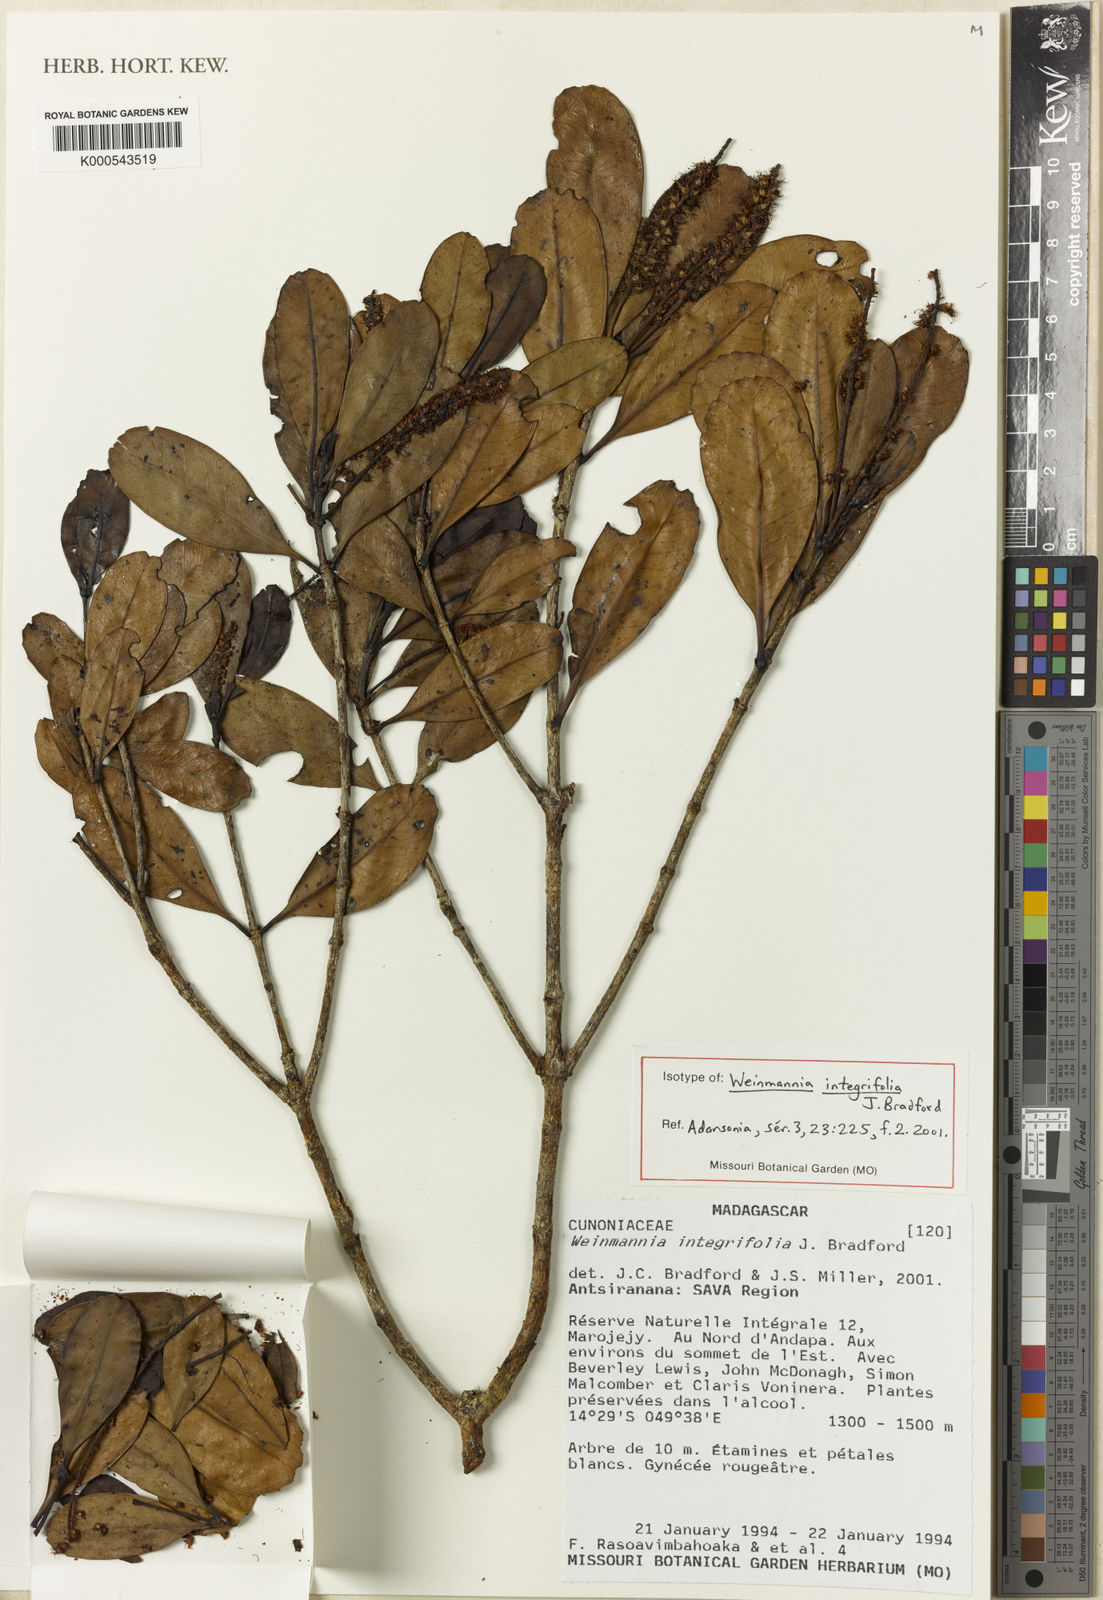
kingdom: Plantae
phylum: Tracheophyta
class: Magnoliopsida
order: Oxalidales
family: Cunoniaceae
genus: Pterophylla
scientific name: Pterophylla bradfordii
